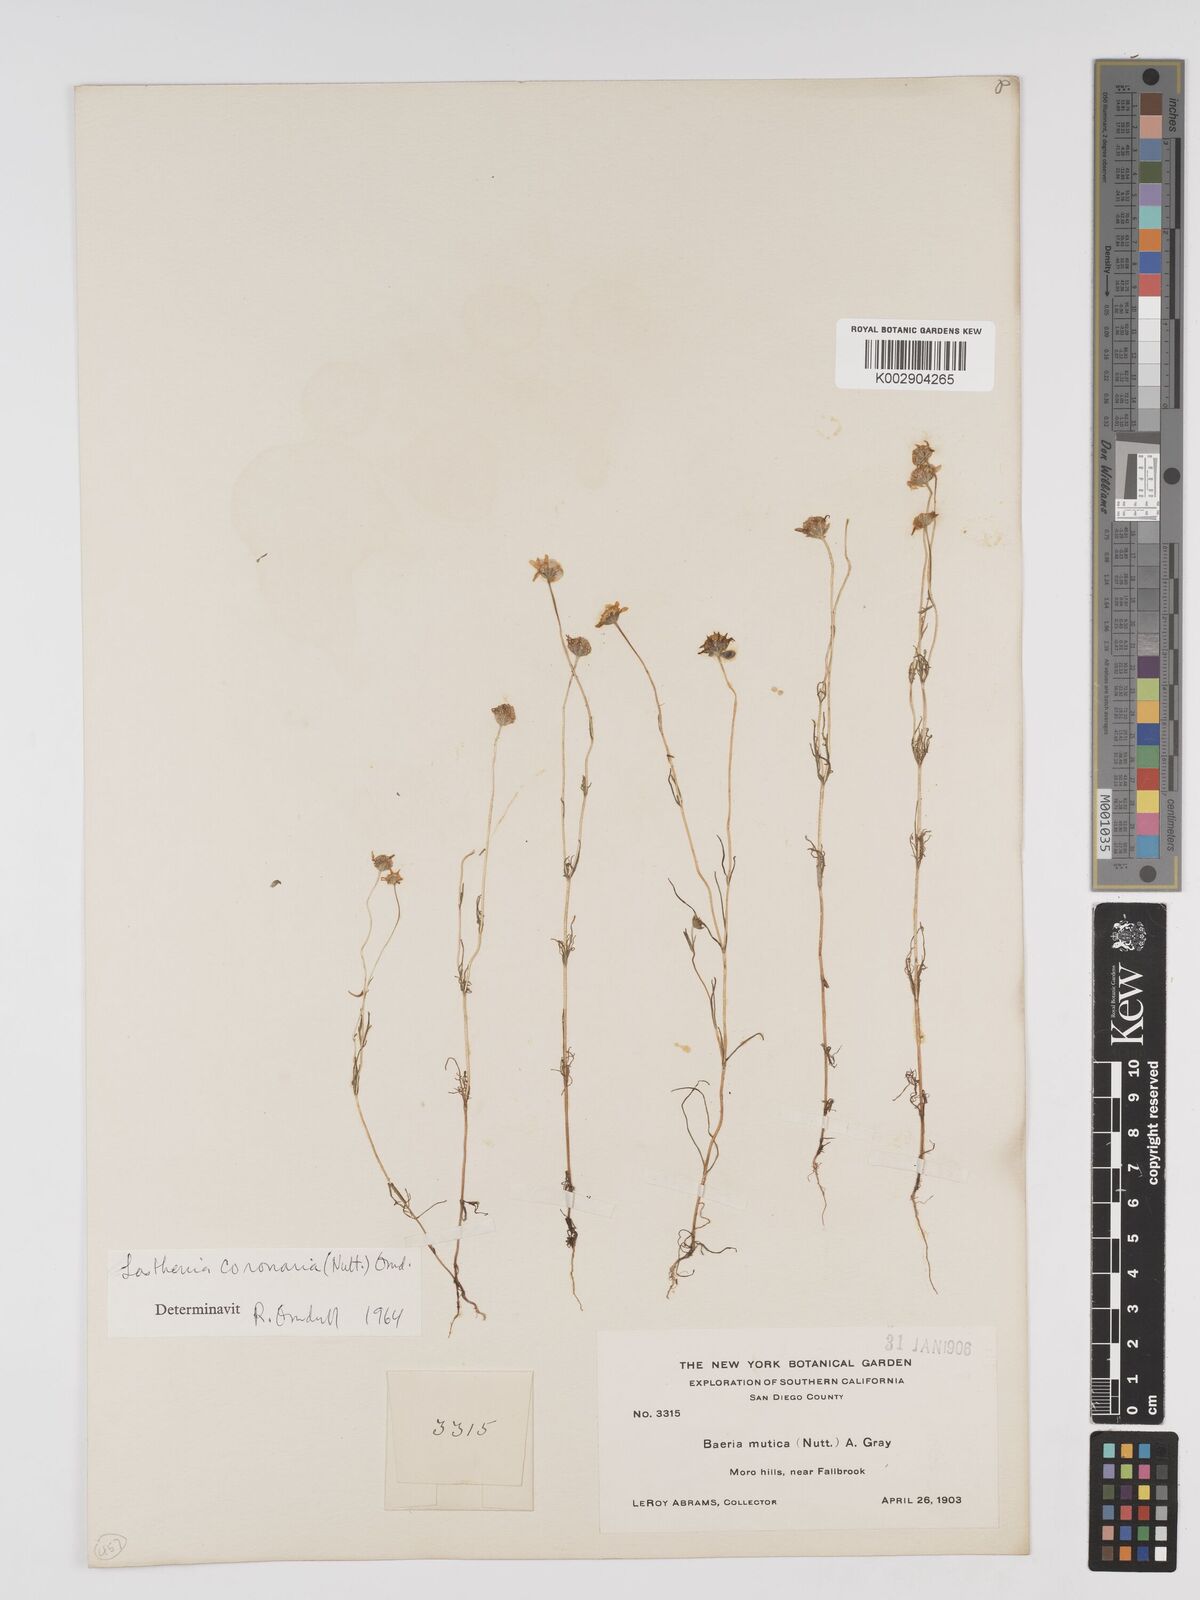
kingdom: Plantae
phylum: Tracheophyta
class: Magnoliopsida
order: Asterales
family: Asteraceae
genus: Lasthenia
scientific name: Lasthenia coronaria
